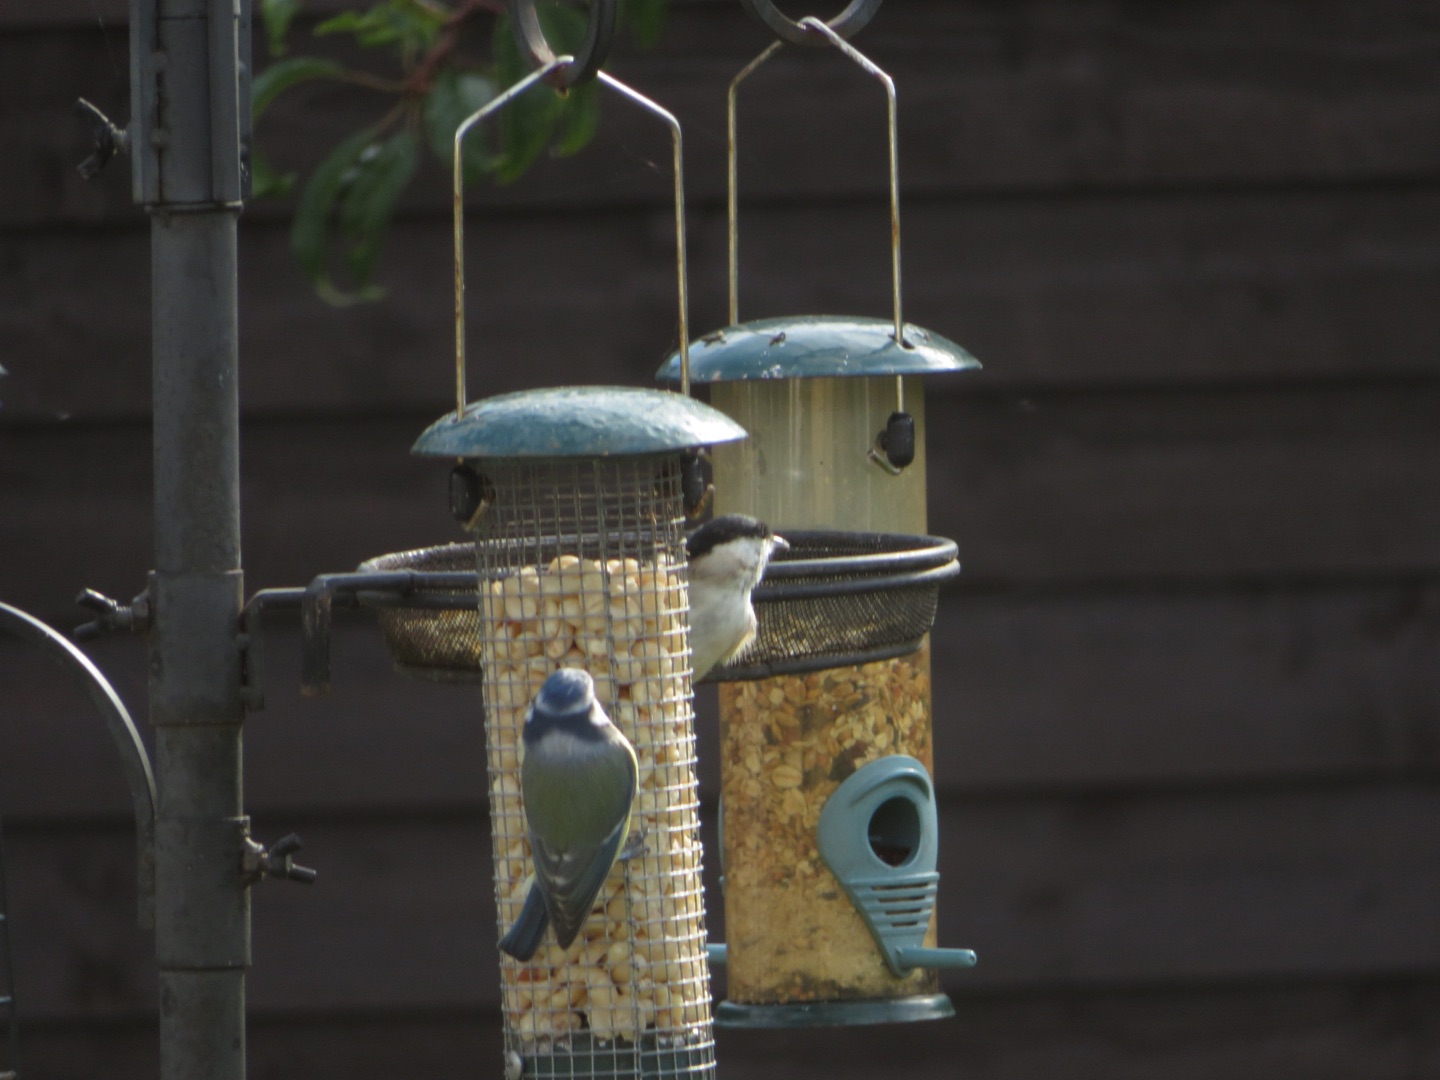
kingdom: Animalia
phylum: Chordata
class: Aves
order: Passeriformes
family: Paridae
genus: Poecile
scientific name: Poecile palustris
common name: Sumpmejse
